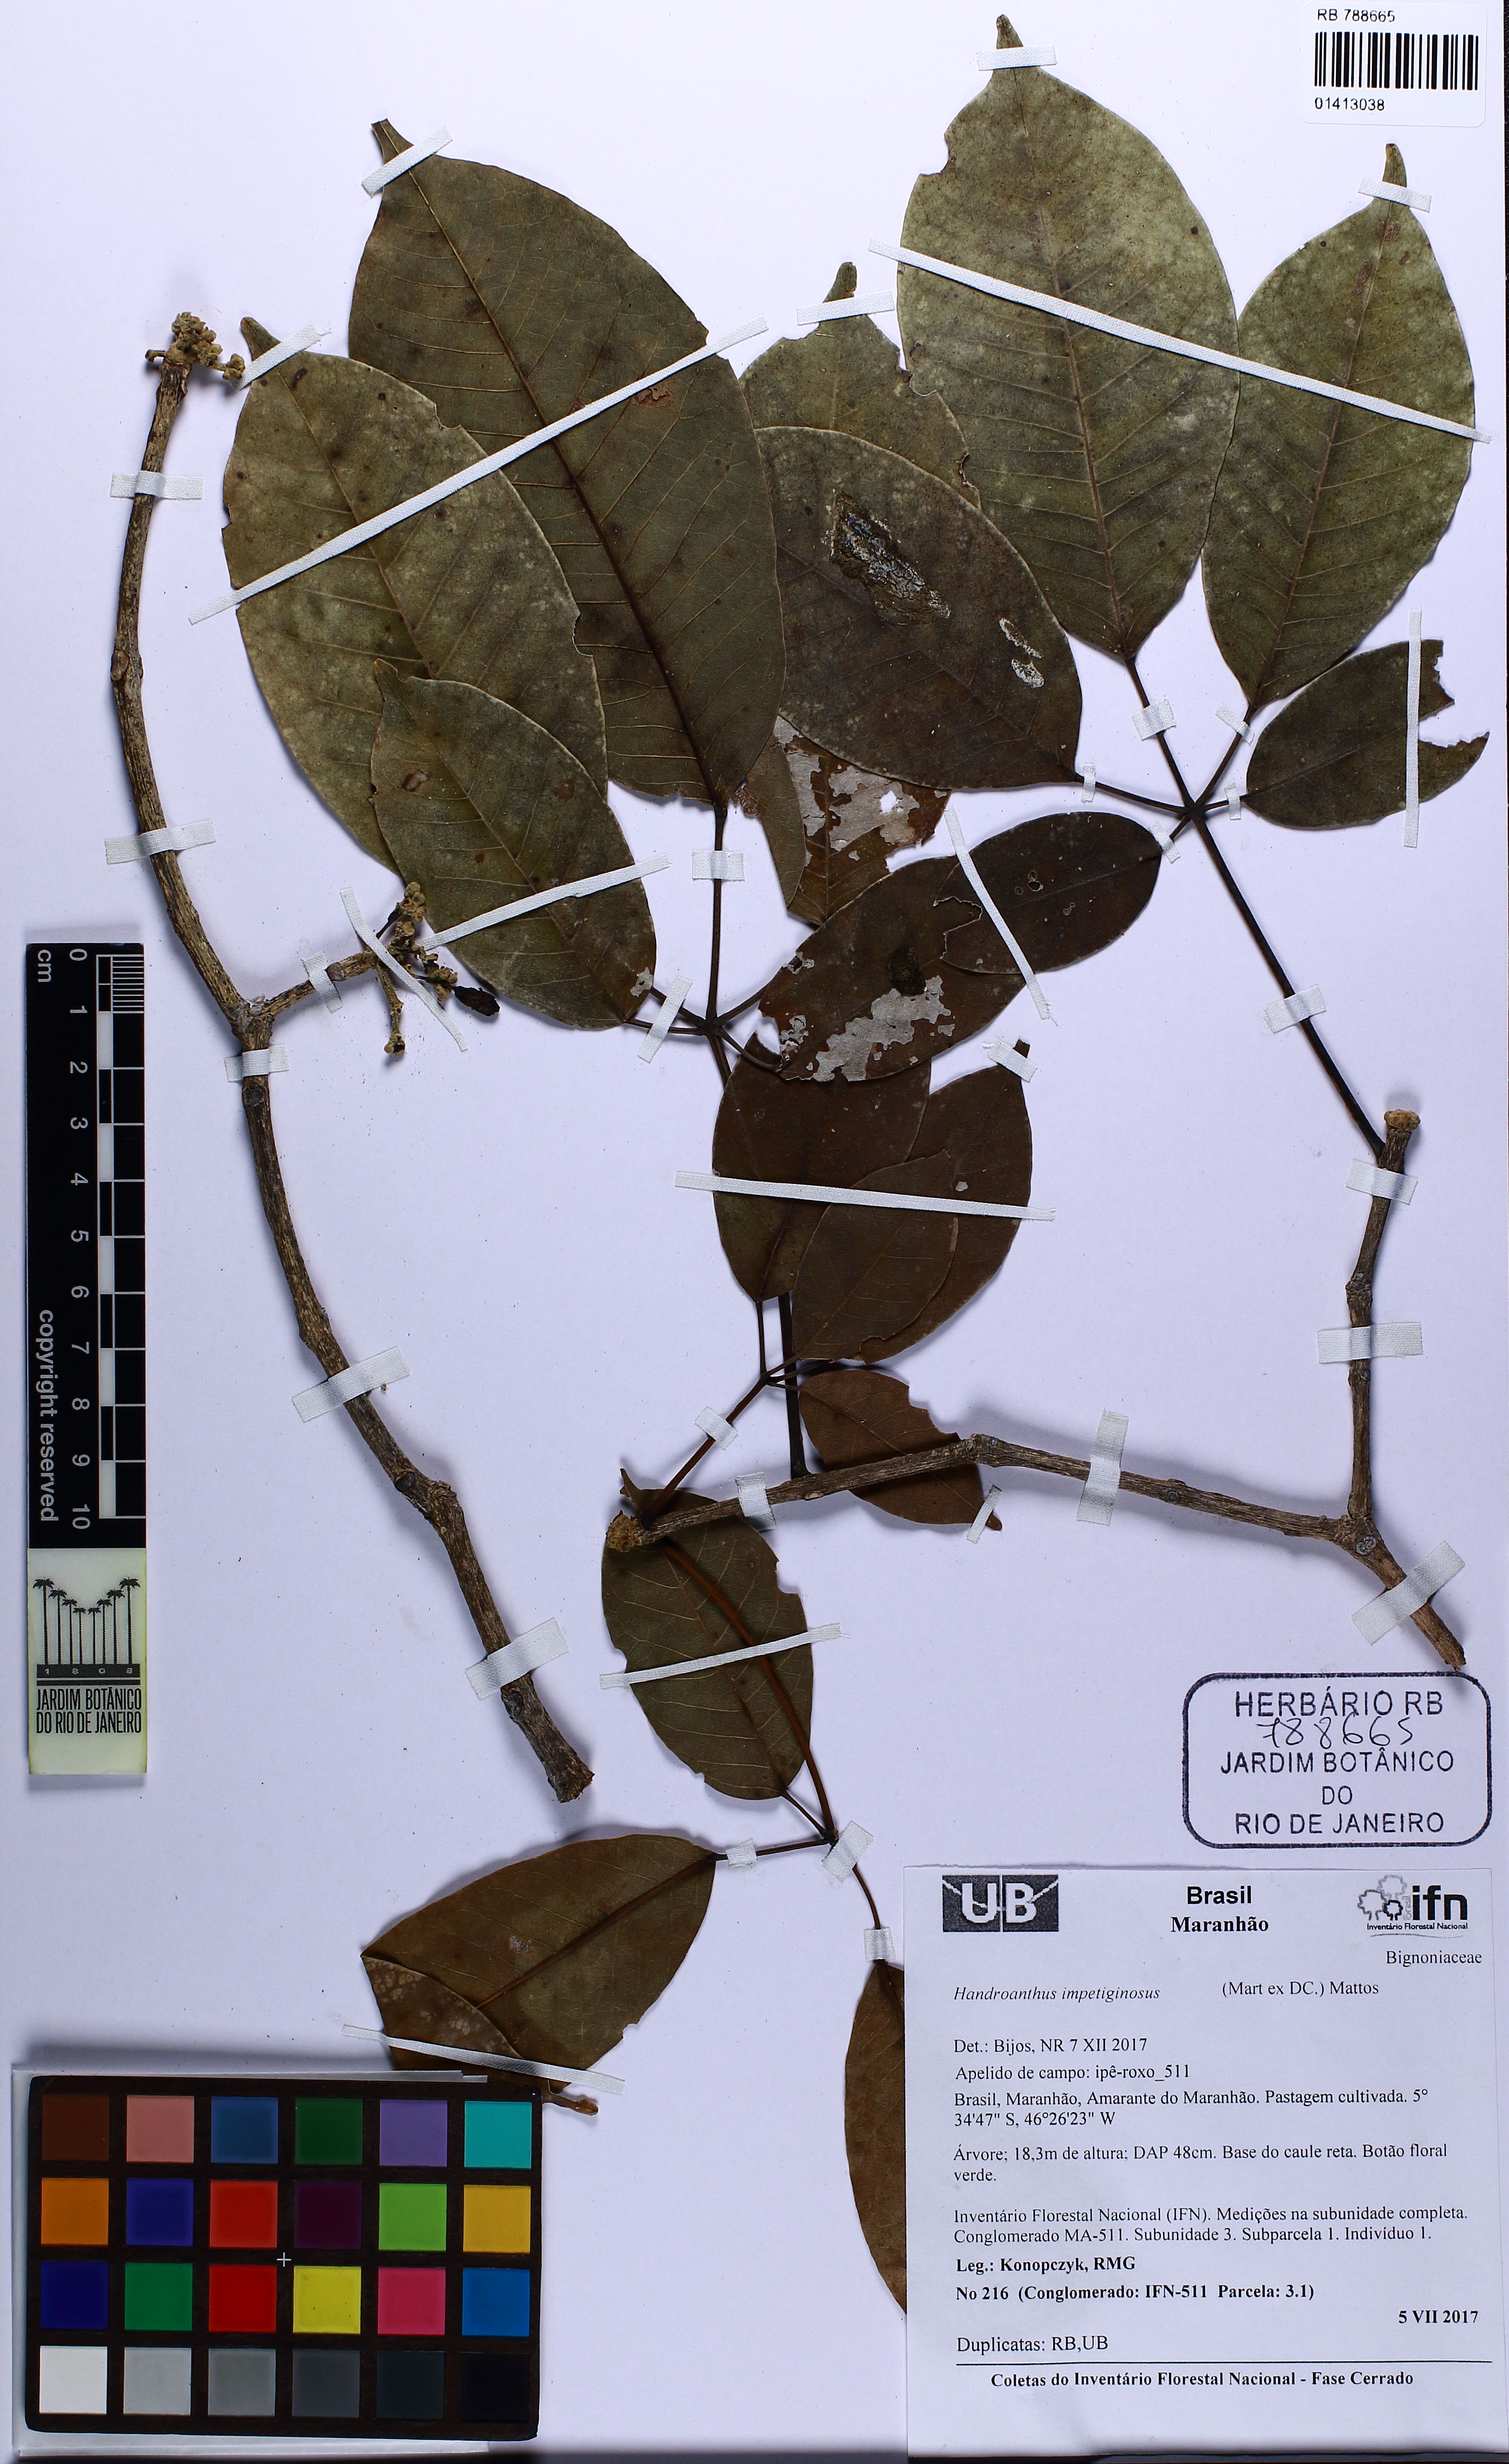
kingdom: Plantae
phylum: Tracheophyta
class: Magnoliopsida
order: Lamiales
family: Bignoniaceae
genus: Handroanthus
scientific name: Handroanthus impetiginosum
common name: Pink trumpet tree
